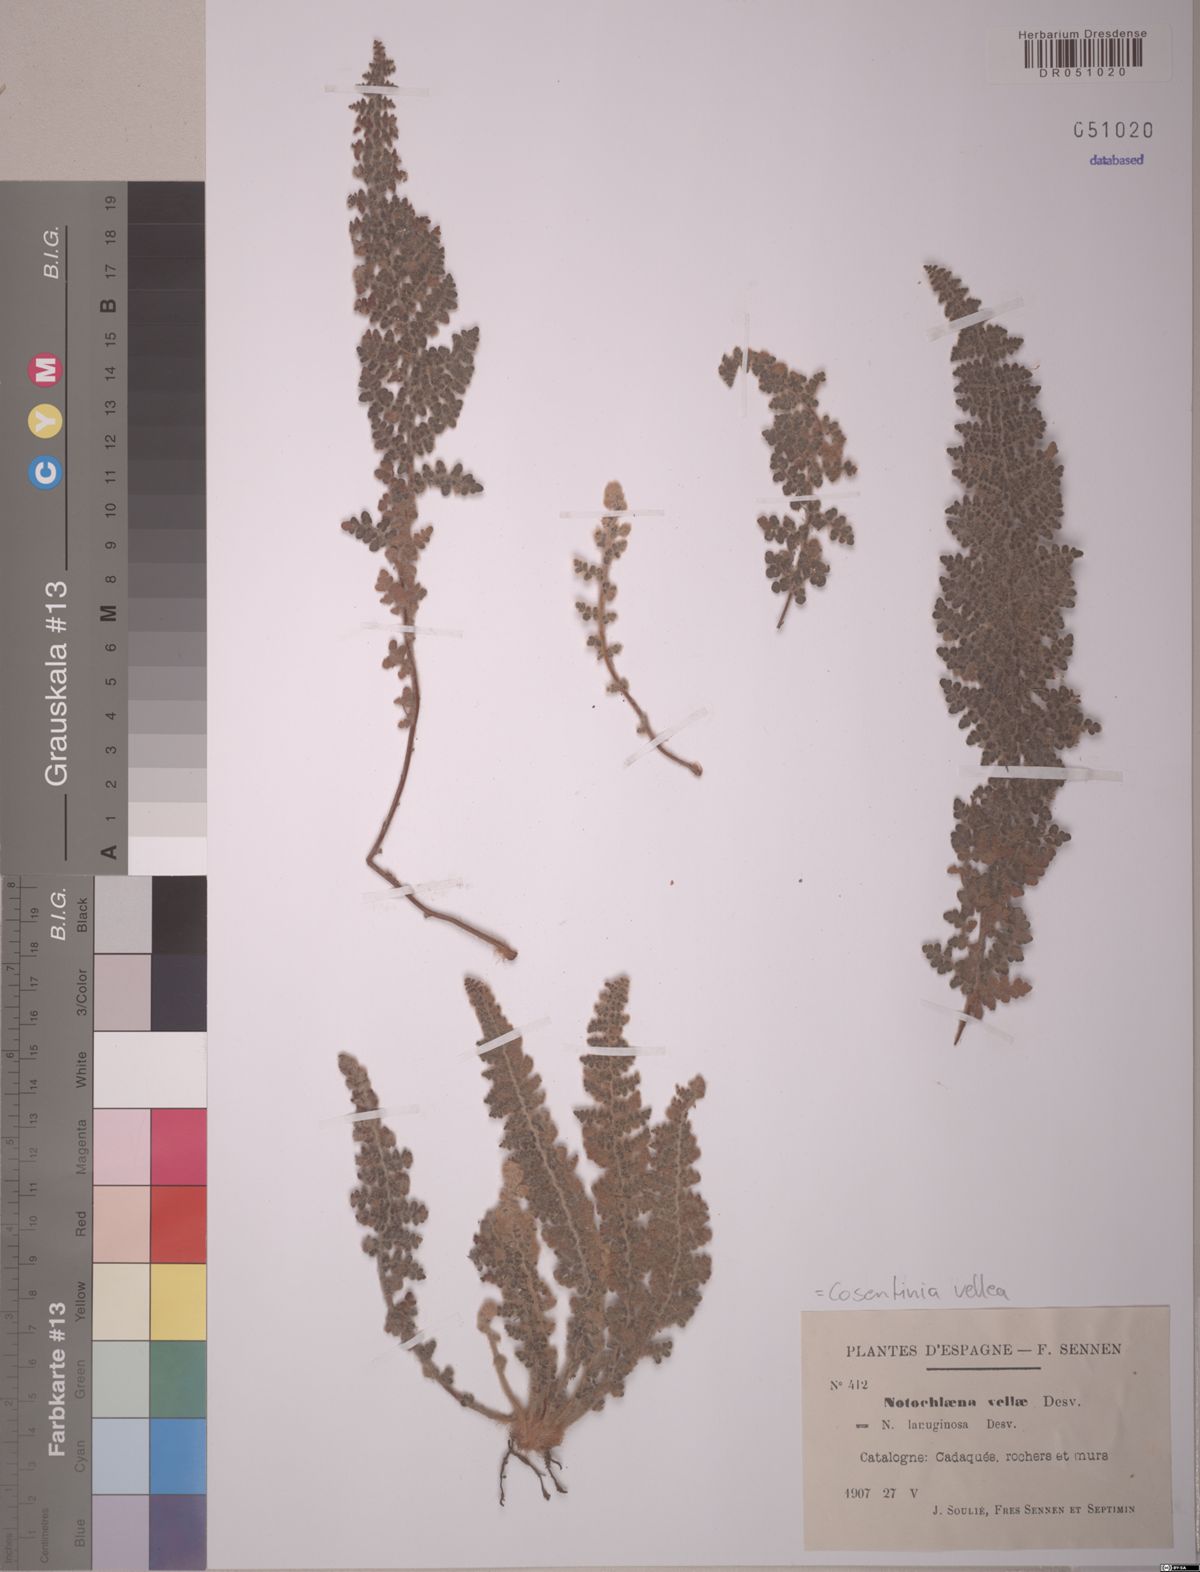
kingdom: Plantae
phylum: Tracheophyta
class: Polypodiopsida
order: Polypodiales
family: Pteridaceae
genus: Cosentinia
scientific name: Cosentinia vellea
